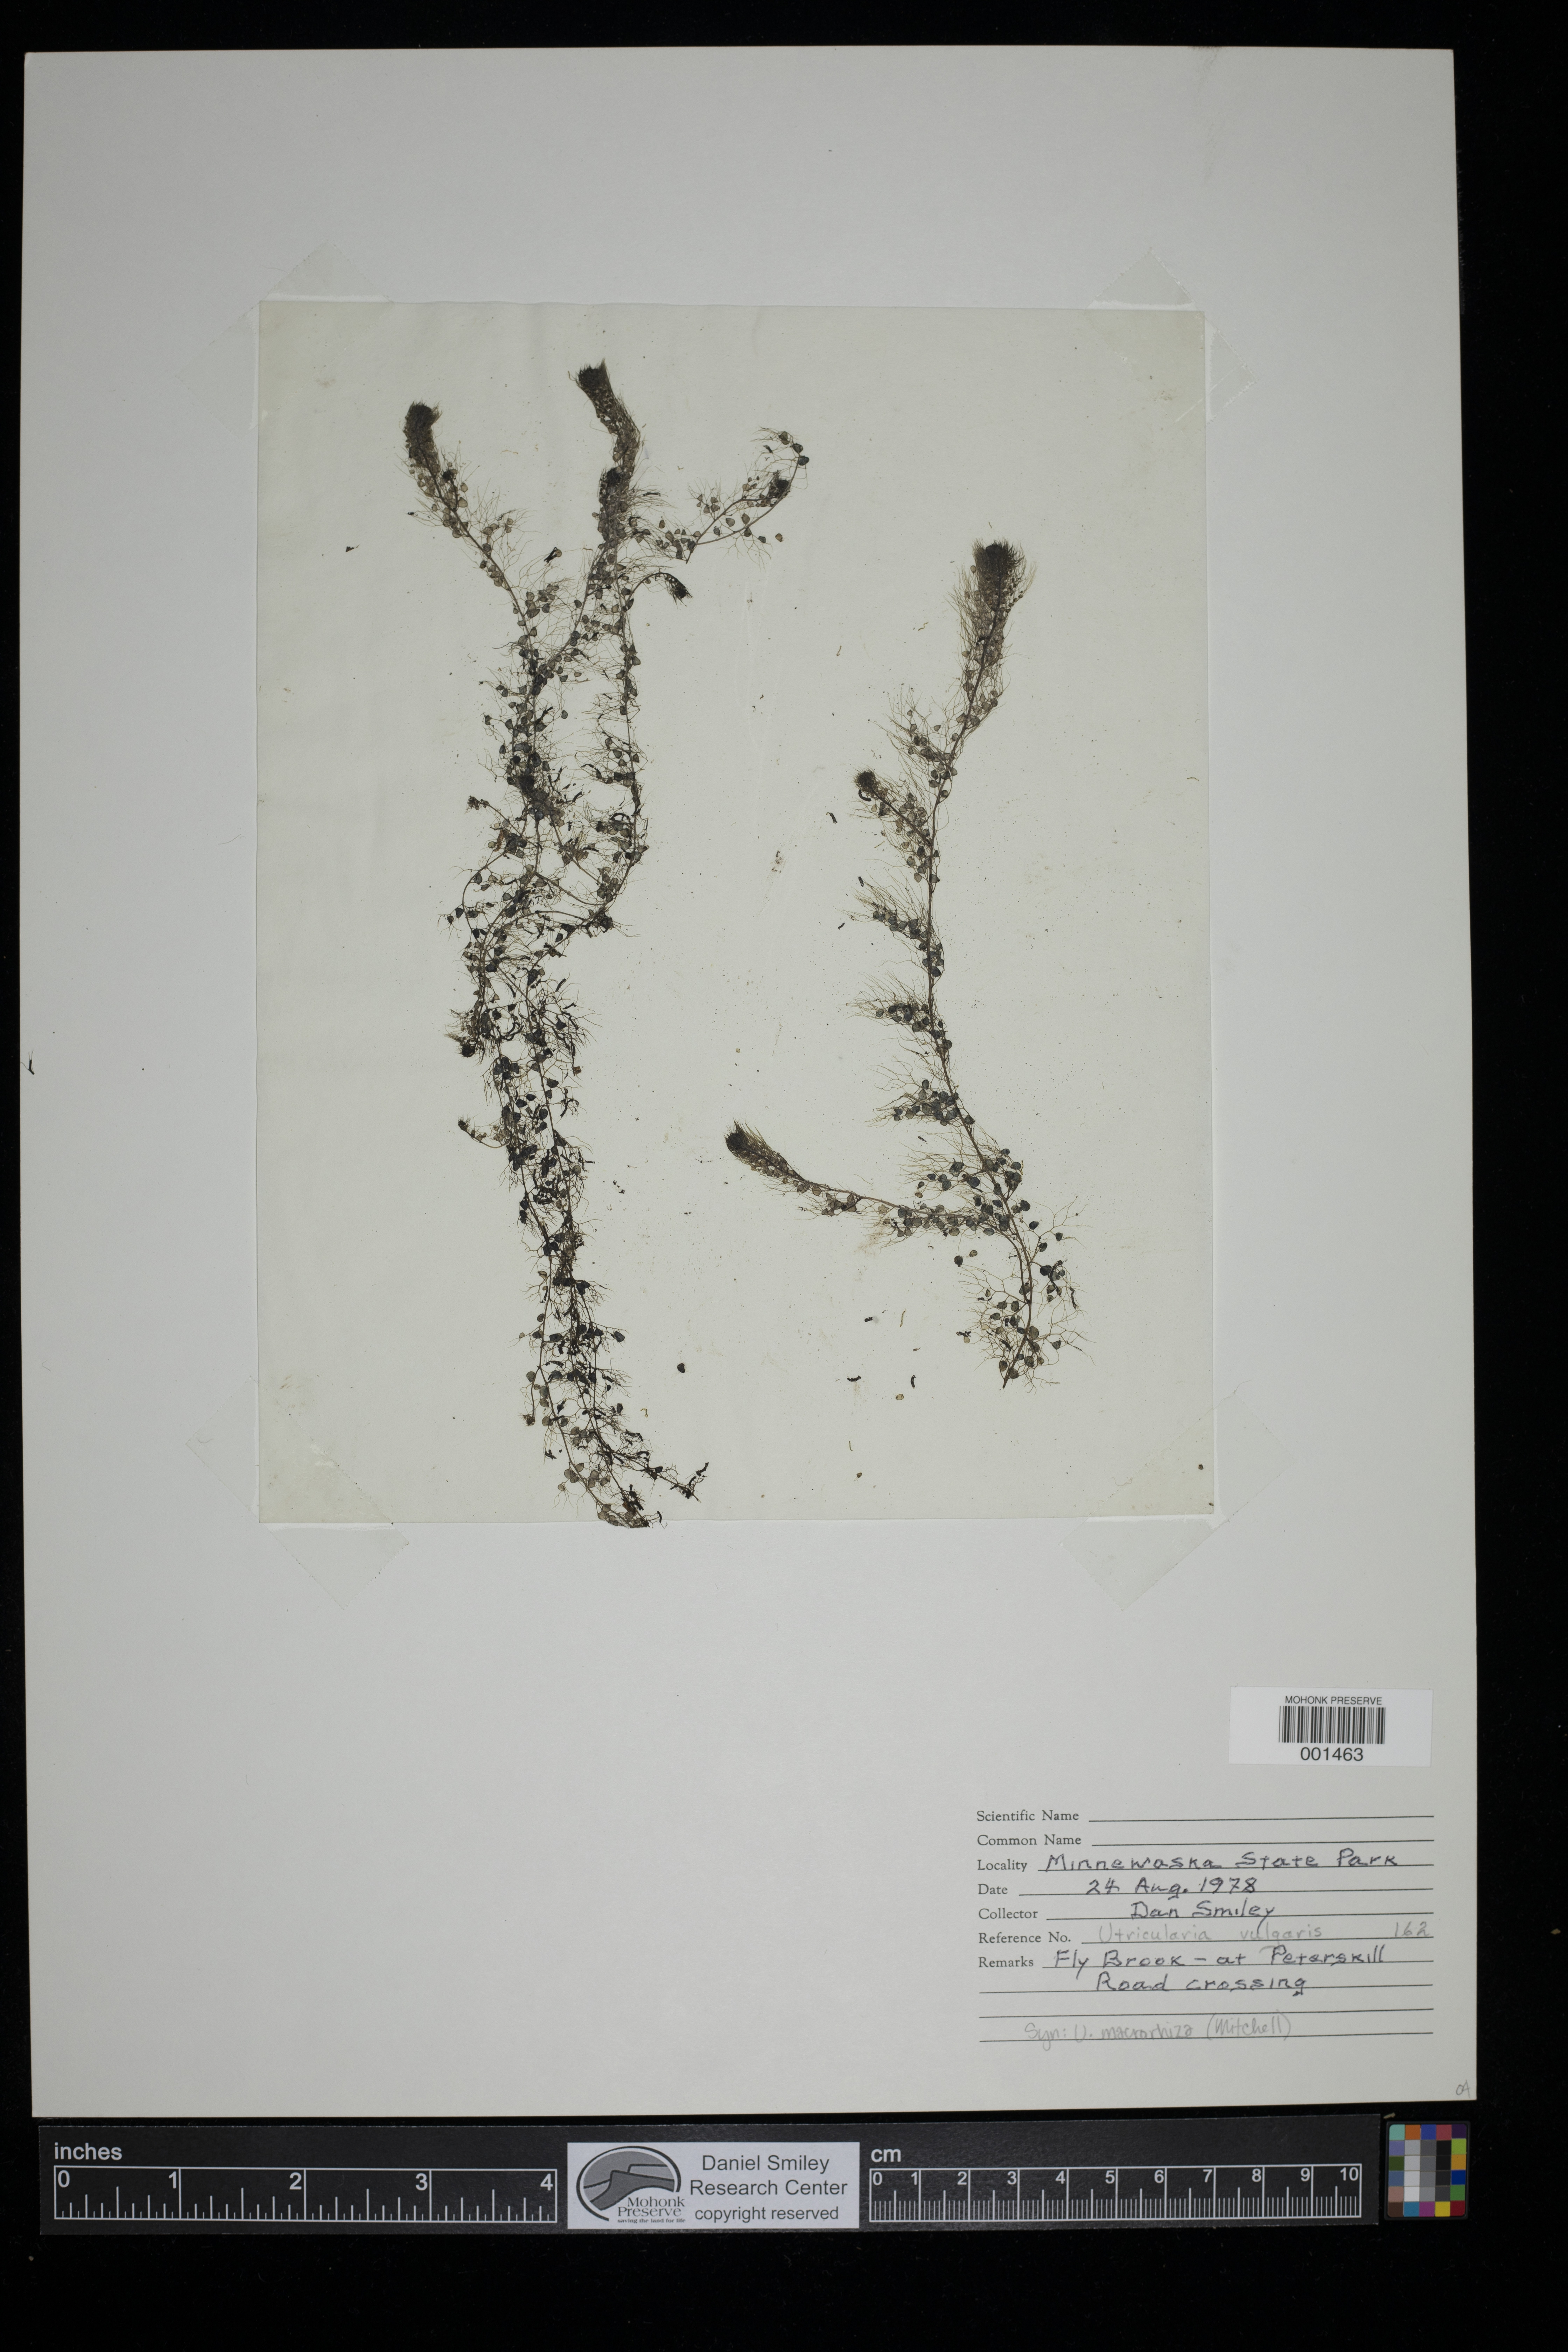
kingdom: Plantae
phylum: Tracheophyta
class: Magnoliopsida
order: Lamiales
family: Lentibulariaceae
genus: Utricularia
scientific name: Utricularia vulgaris
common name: Greater bladderwort
